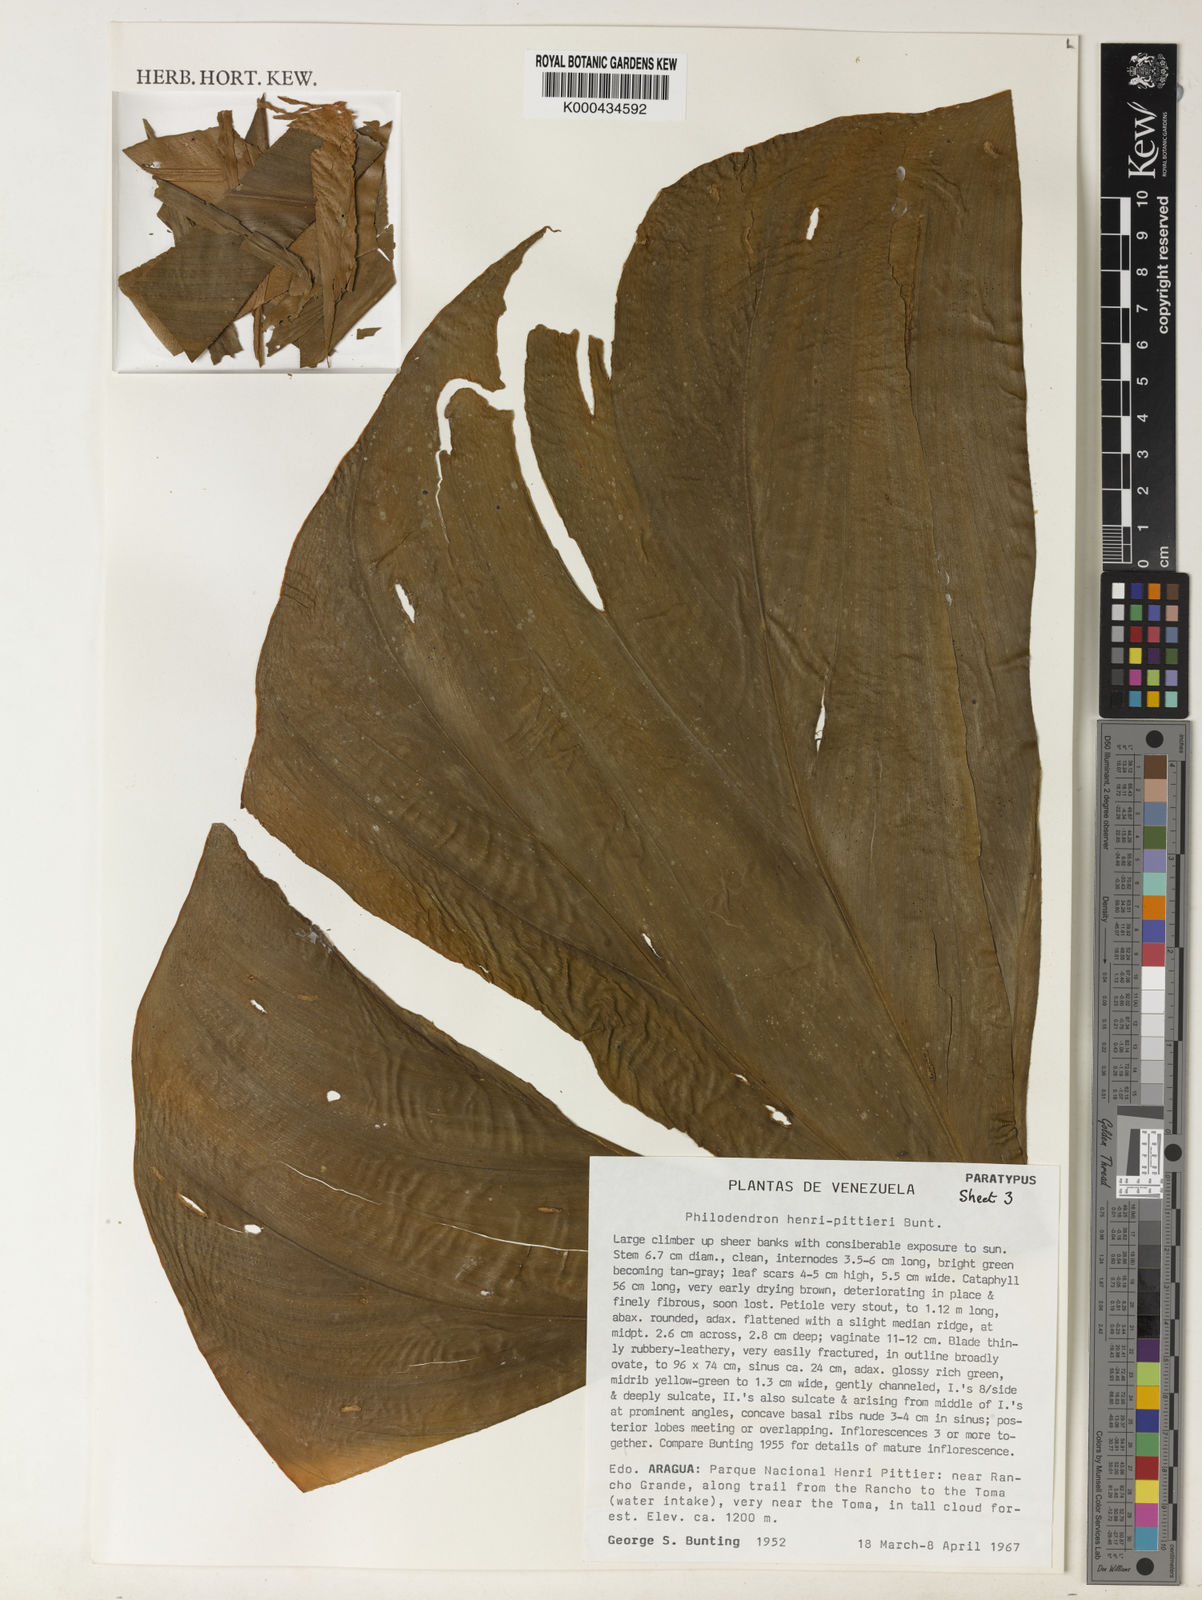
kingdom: Plantae
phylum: Tracheophyta
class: Liliopsida
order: Alismatales
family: Araceae
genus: Philodendron
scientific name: Philodendron henry-pittieri
